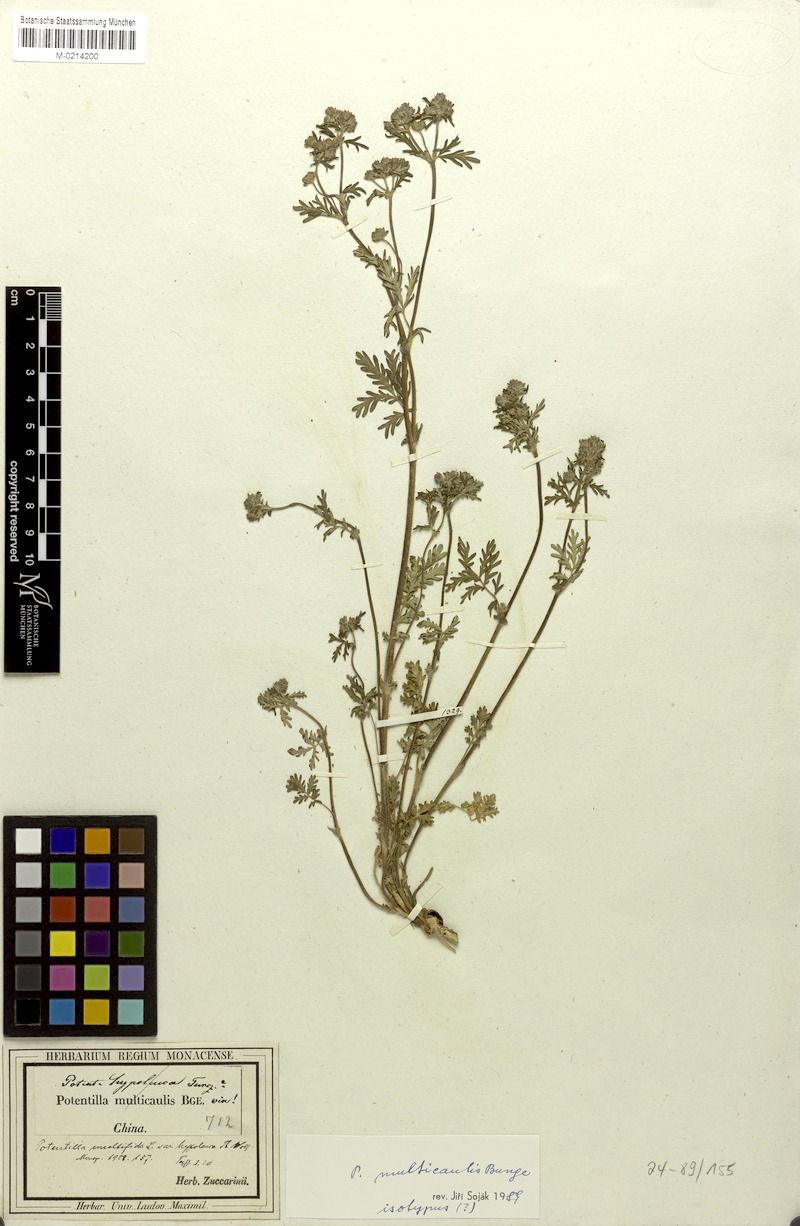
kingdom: Plantae
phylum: Tracheophyta
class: Magnoliopsida
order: Rosales
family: Rosaceae
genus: Potentilla
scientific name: Potentilla multicaulis
